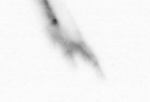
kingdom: Animalia
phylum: Arthropoda
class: Copepoda
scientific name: Copepoda
